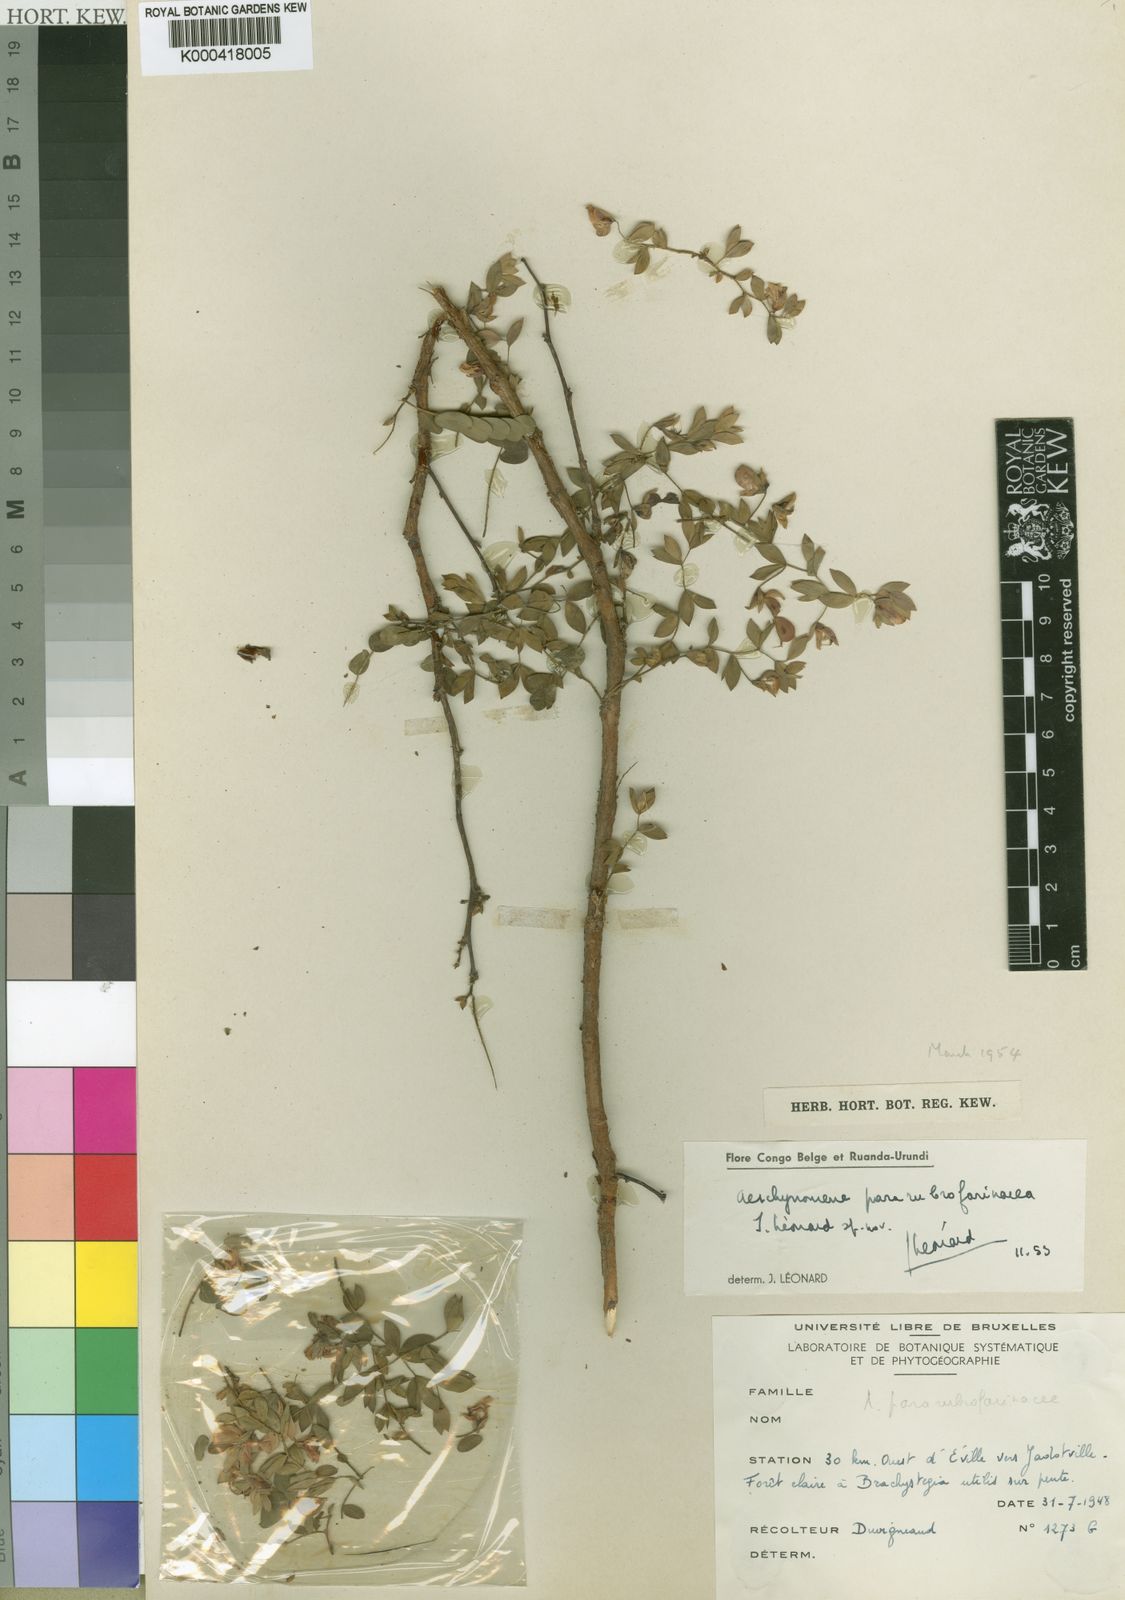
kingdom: Plantae
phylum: Tracheophyta
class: Magnoliopsida
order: Fabales
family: Fabaceae
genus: Aeschynomene
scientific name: Aeschynomene
